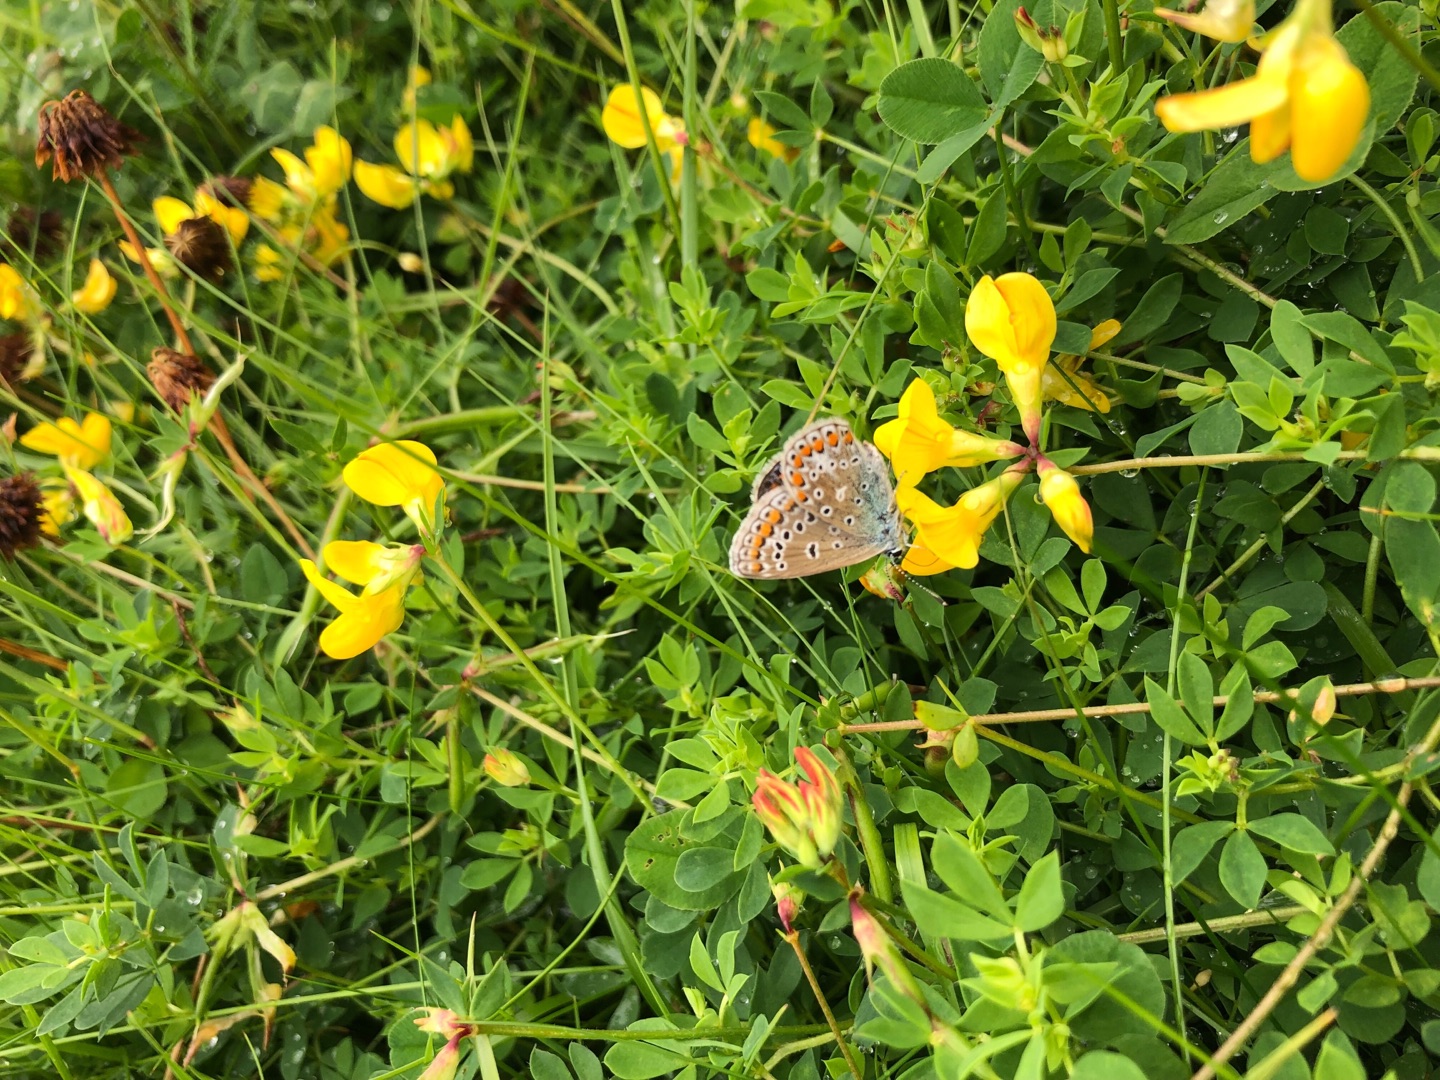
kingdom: Animalia
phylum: Arthropoda
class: Insecta
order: Lepidoptera
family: Lycaenidae
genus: Polyommatus
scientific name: Polyommatus icarus
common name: Almindelig blåfugl
